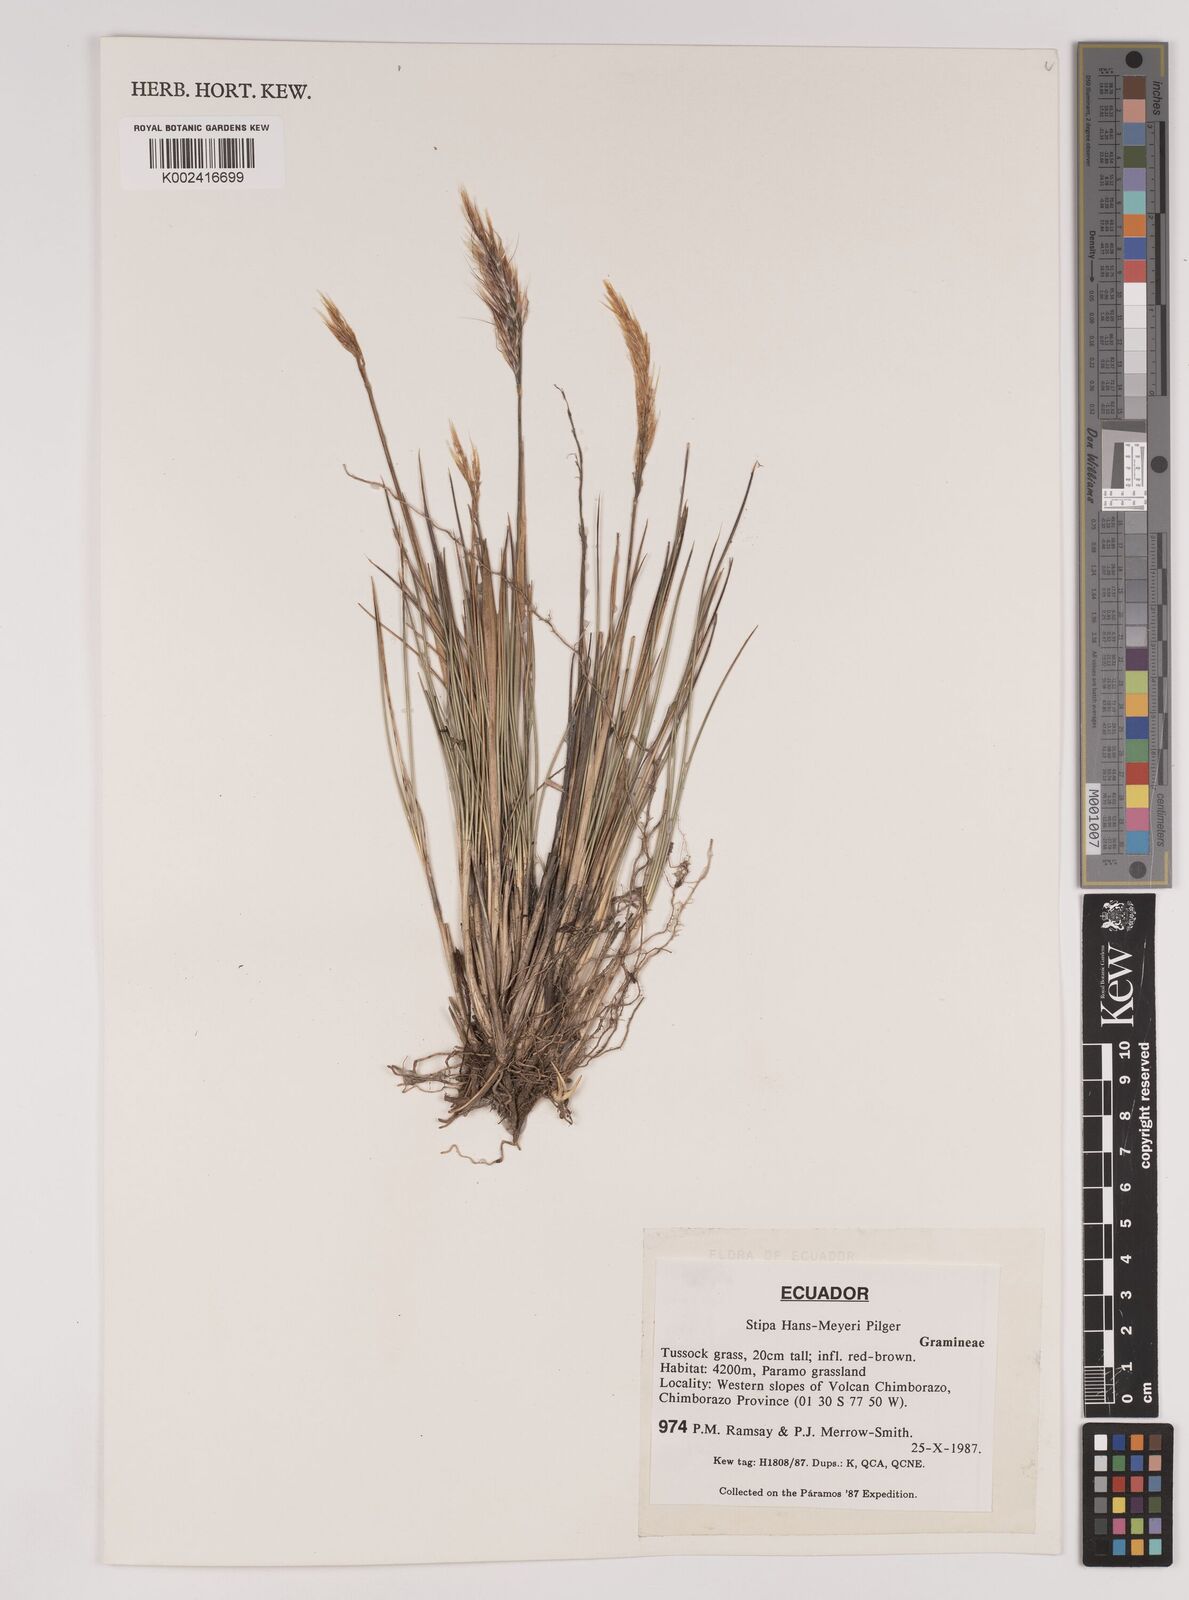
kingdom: Plantae
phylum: Tracheophyta
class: Liliopsida
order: Poales
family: Poaceae
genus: Stipa
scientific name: Stipa hans-meyeri
